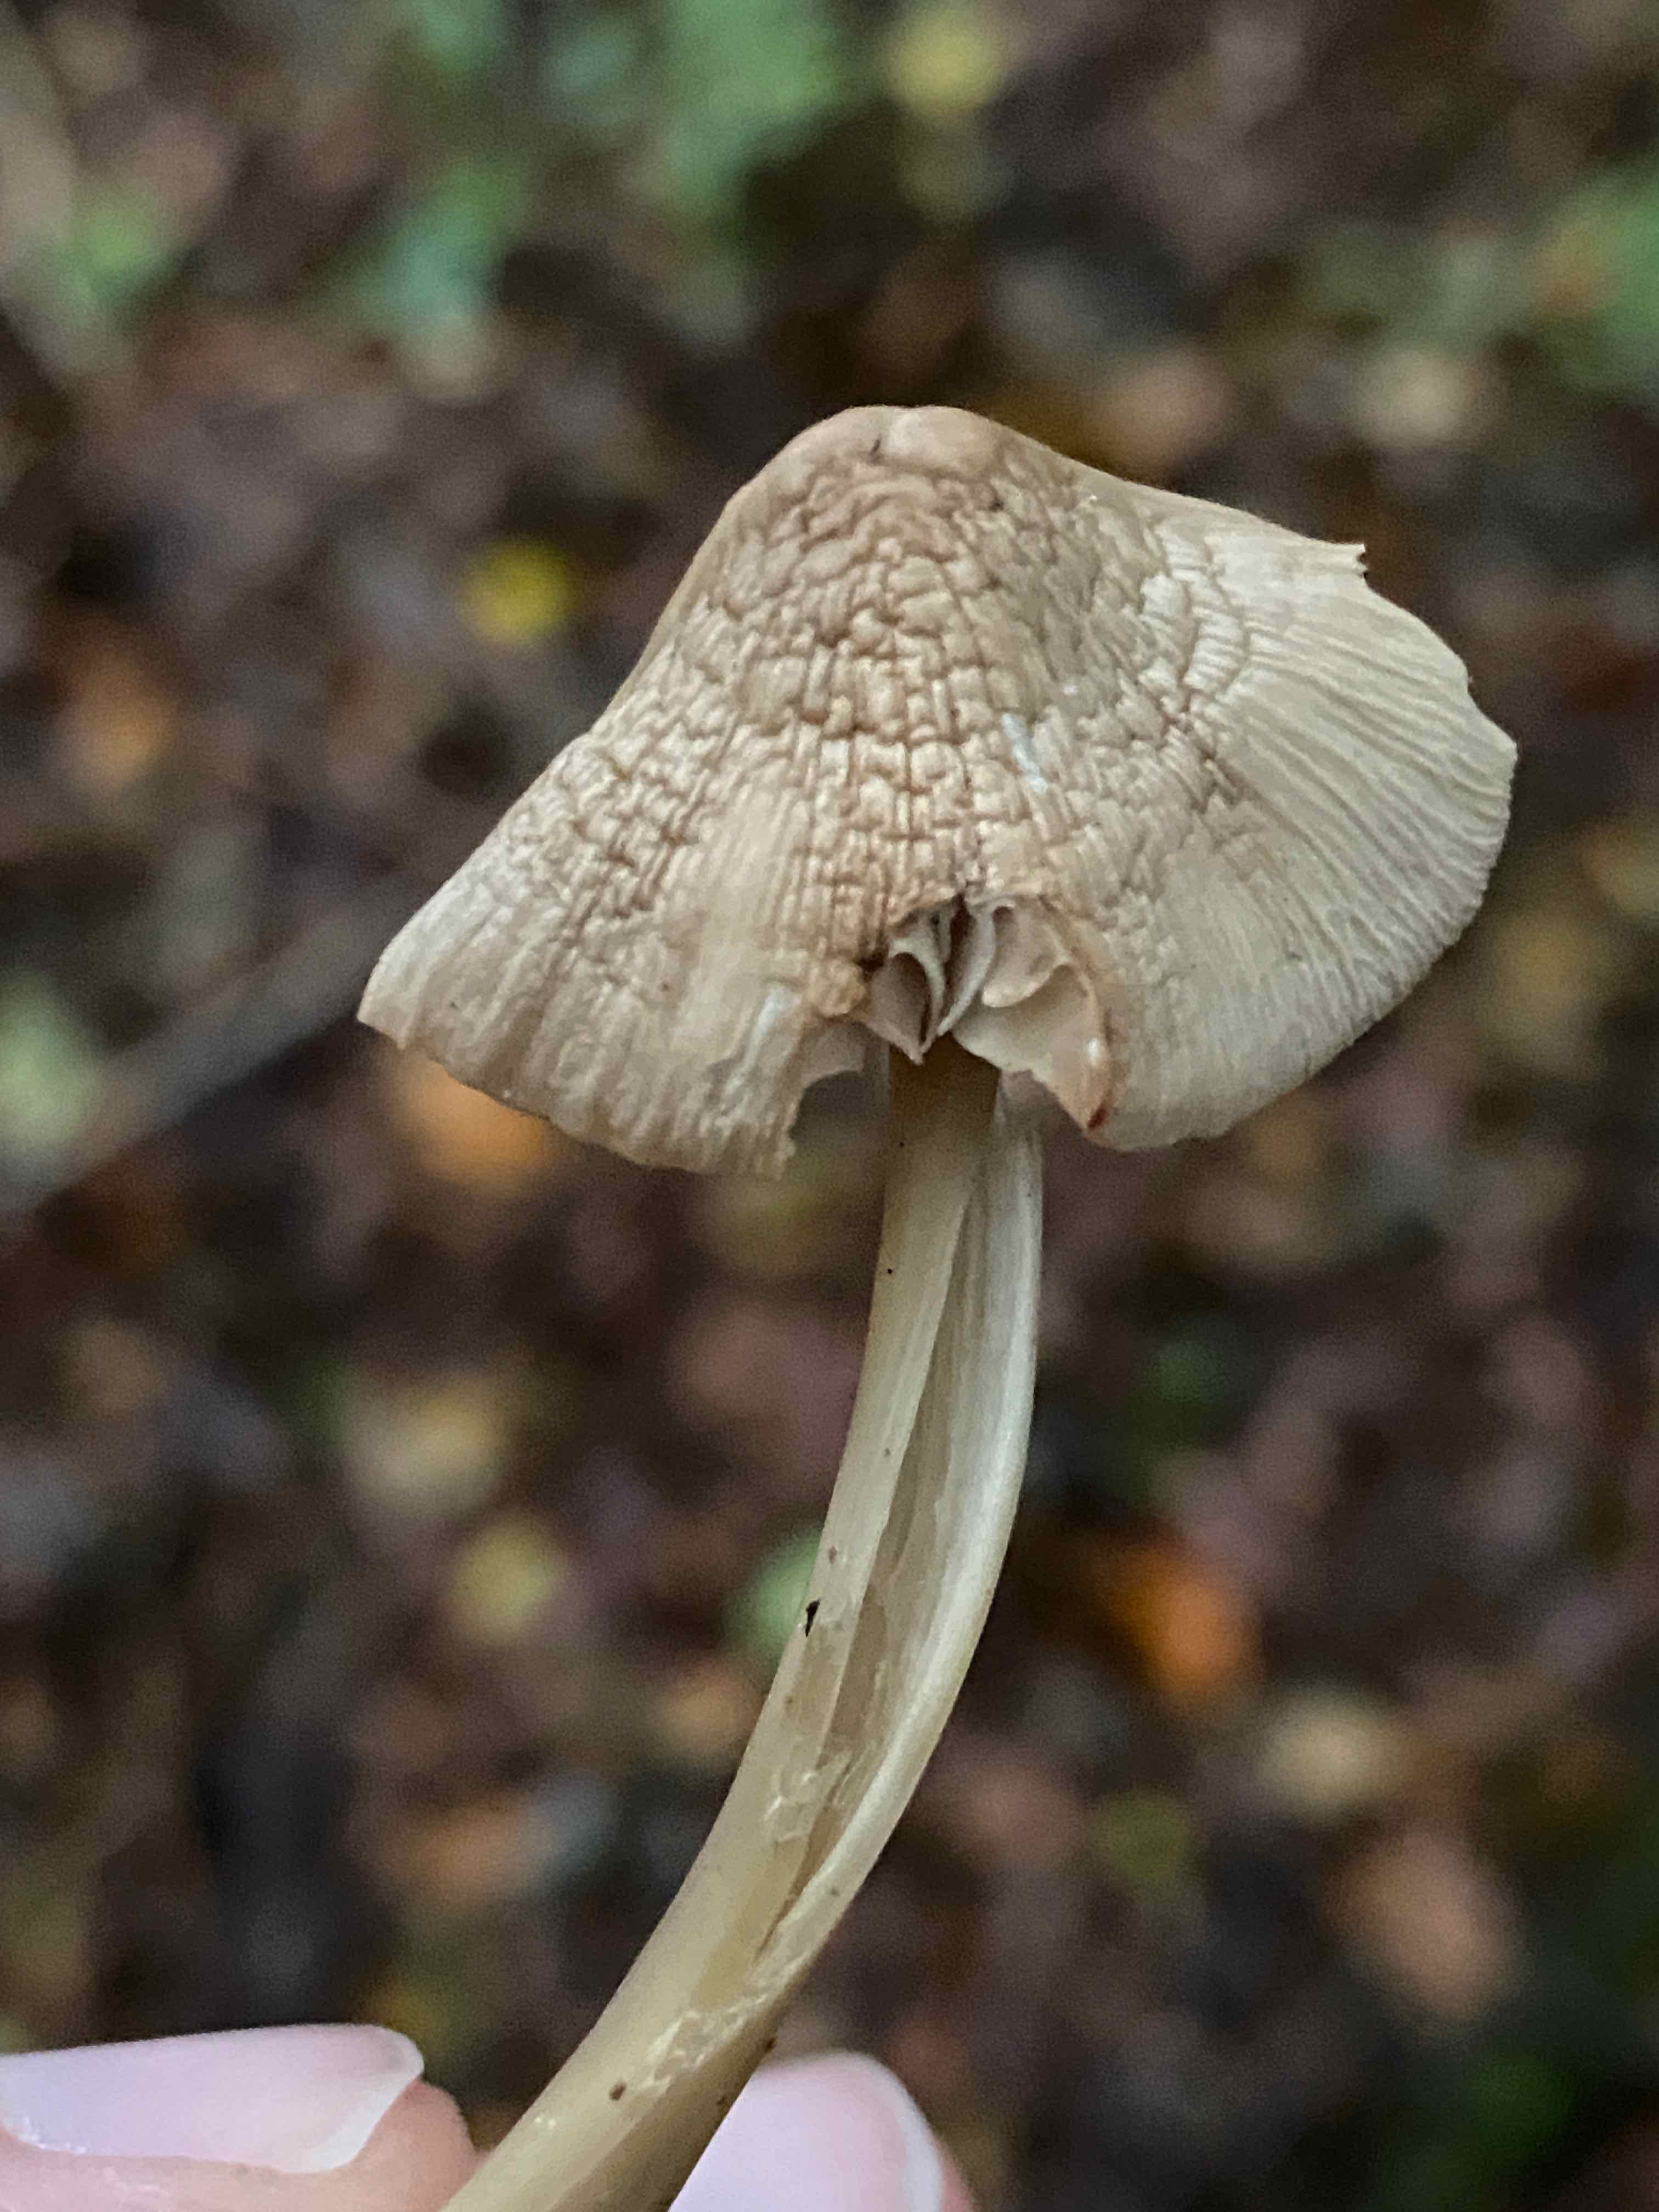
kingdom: Fungi
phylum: Basidiomycota
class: Agaricomycetes
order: Agaricales
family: Mycenaceae
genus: Mycena
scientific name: Mycena galericulata
